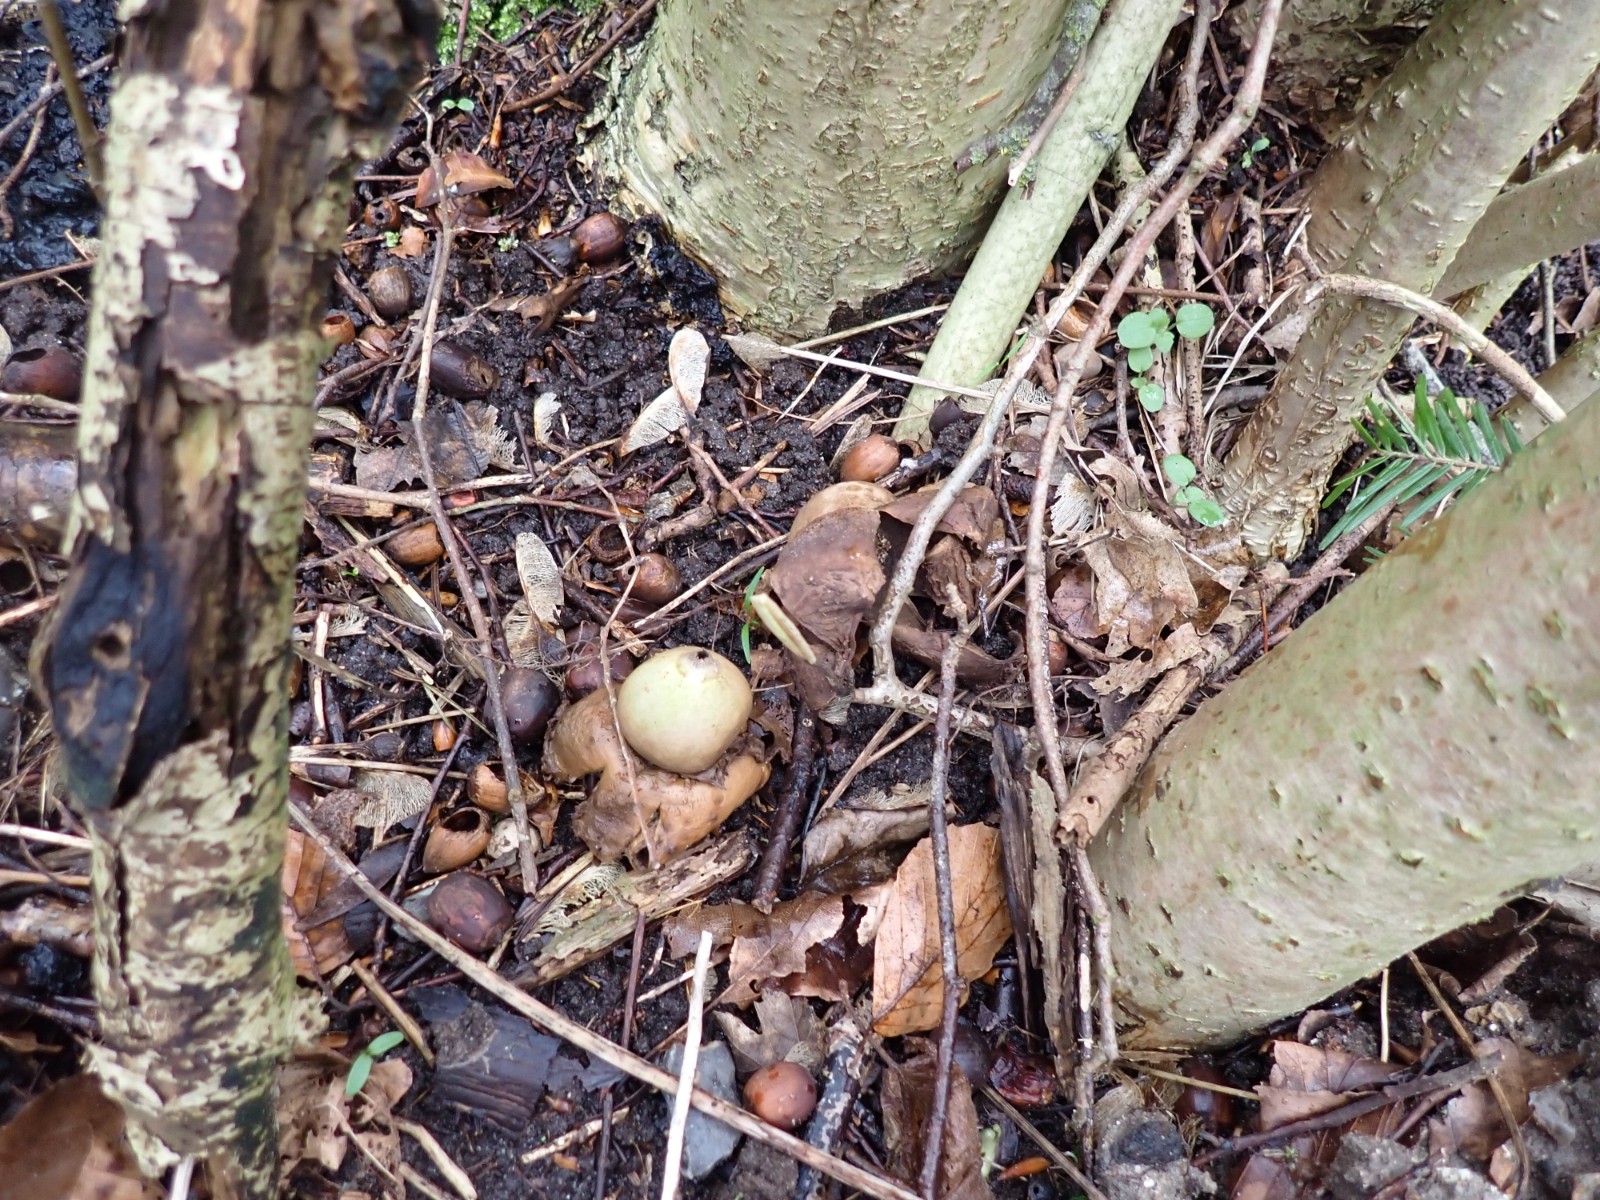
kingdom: Fungi
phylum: Basidiomycota
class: Agaricomycetes
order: Geastrales
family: Geastraceae
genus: Geastrum
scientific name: Geastrum michelianum
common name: kødet stjernebold
